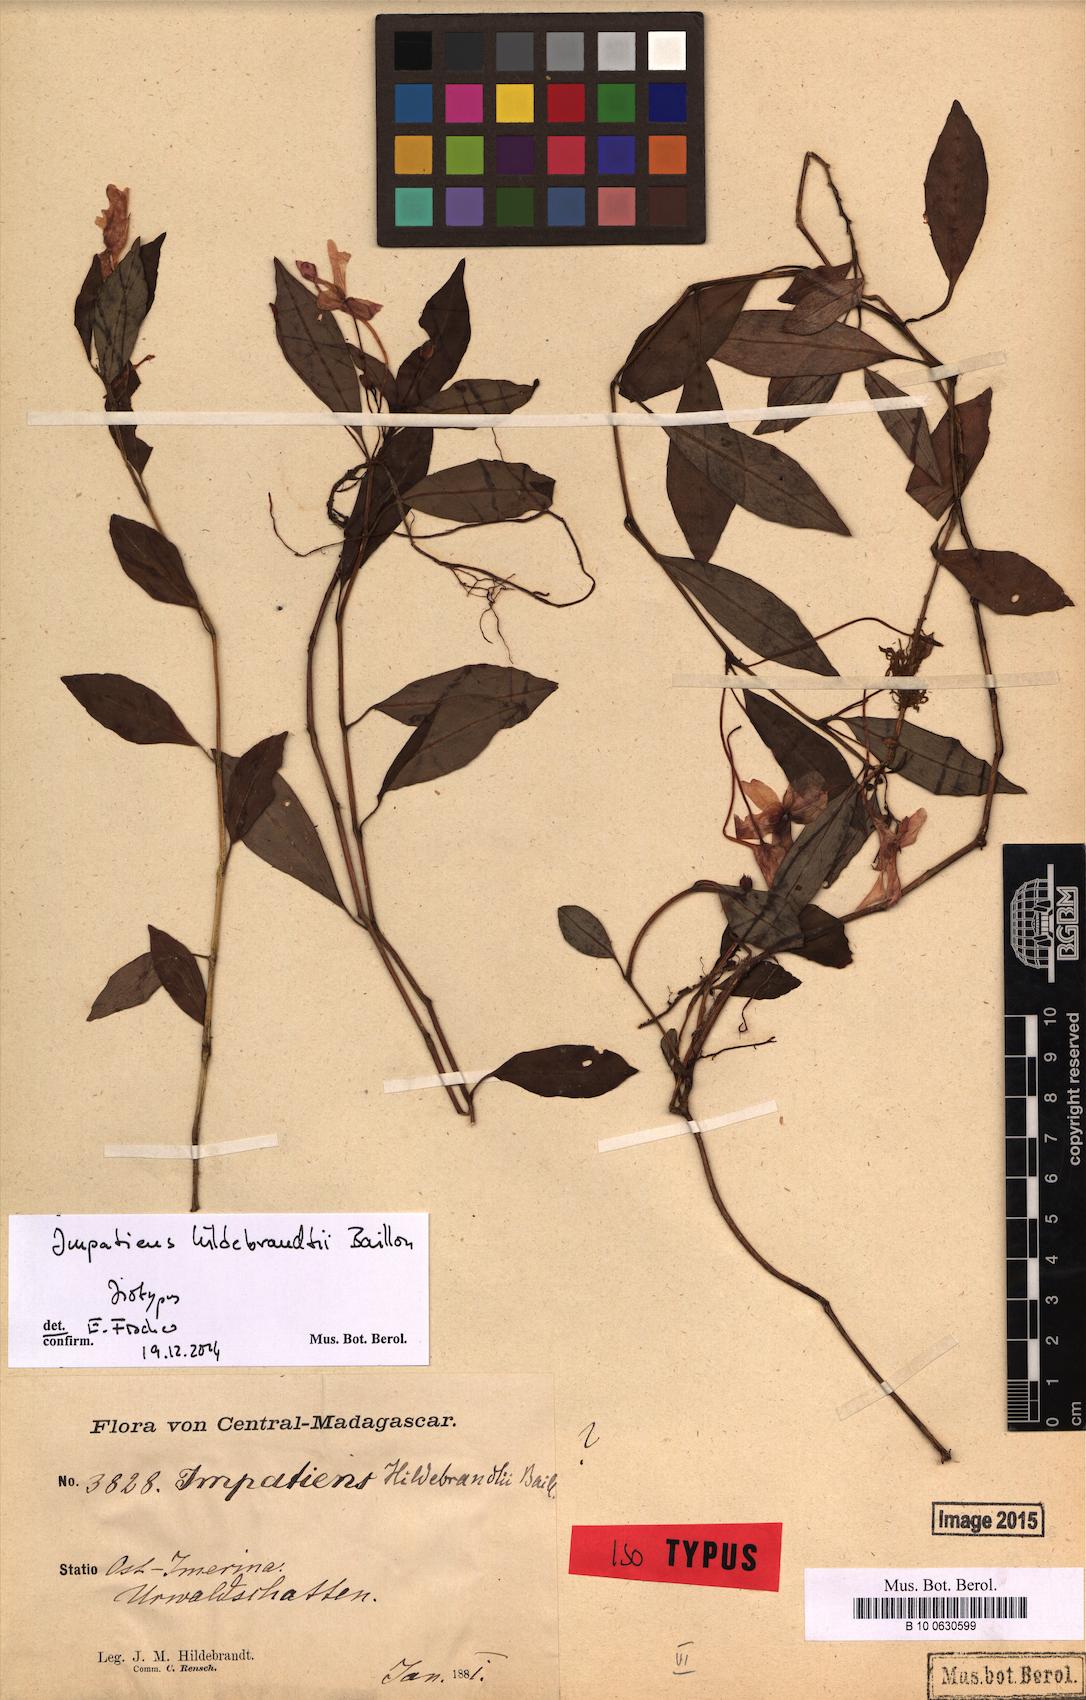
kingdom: Plantae
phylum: Tracheophyta
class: Magnoliopsida
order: Ericales
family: Balsaminaceae
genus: Impatiens
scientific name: Impatiens hildebrandtii
